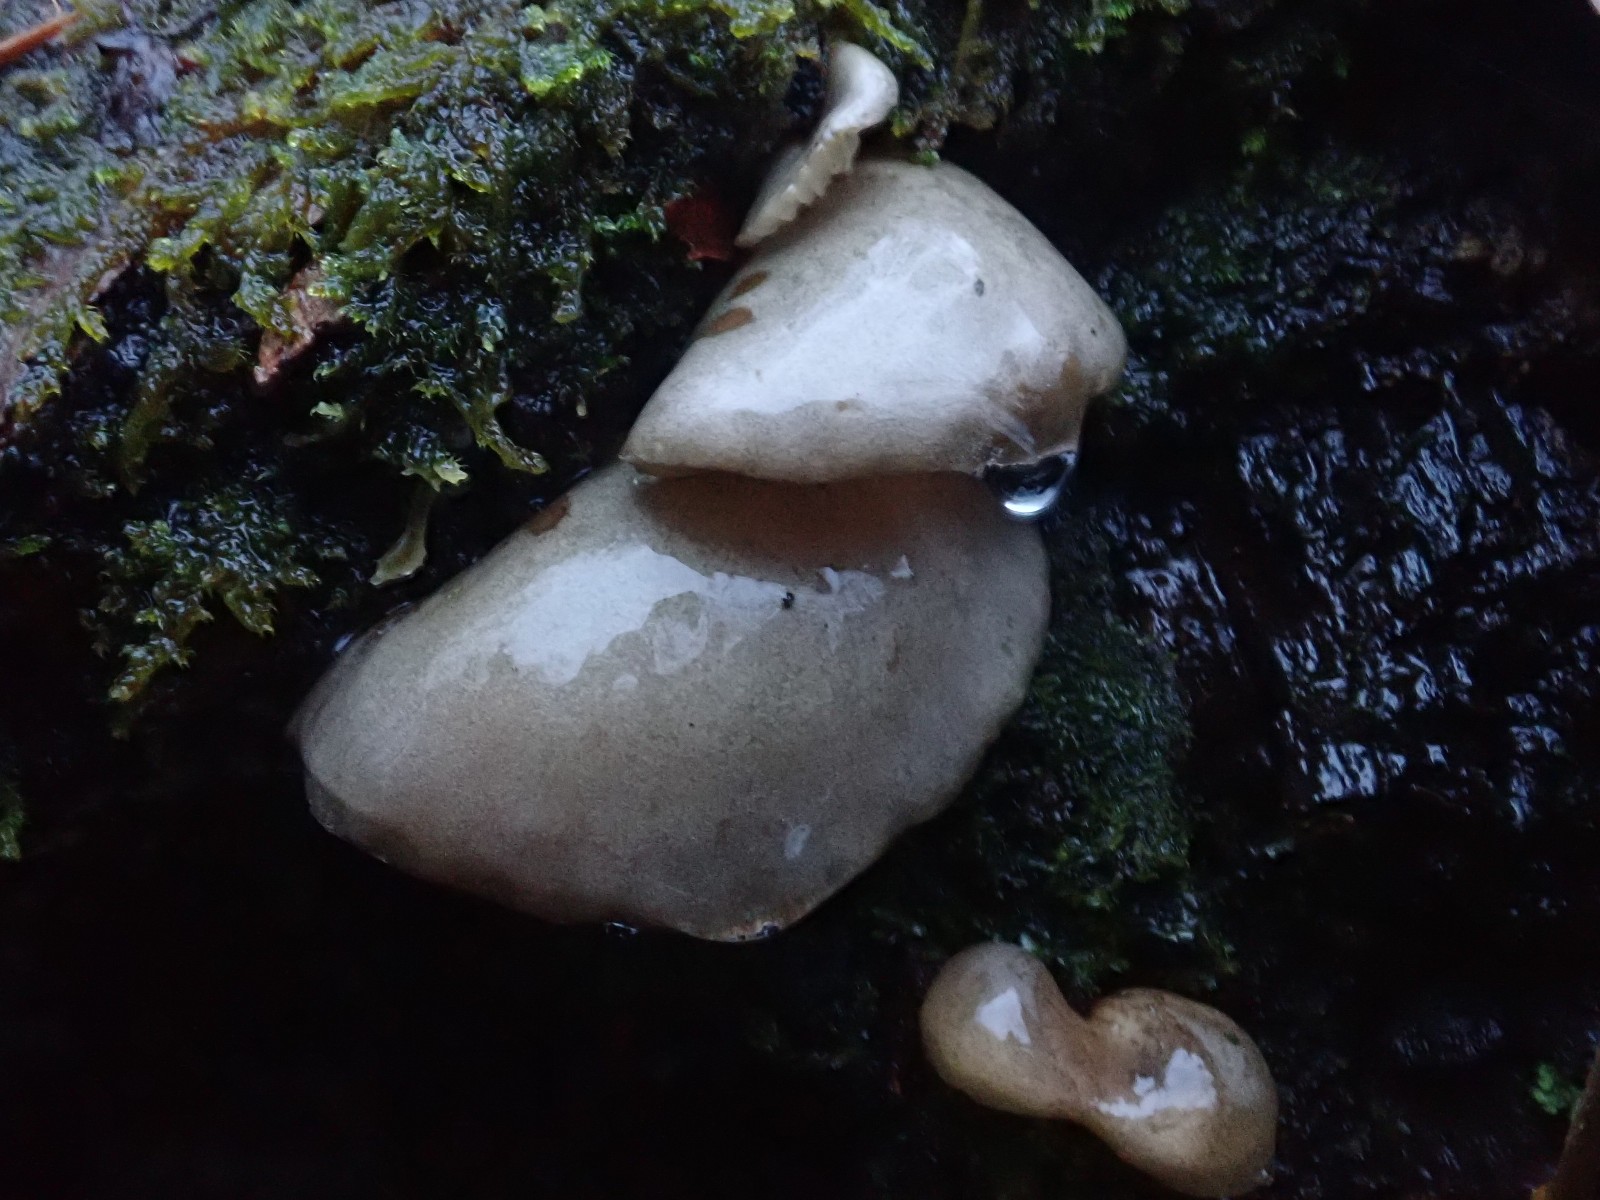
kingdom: Fungi
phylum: Basidiomycota
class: Agaricomycetes
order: Agaricales
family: Sarcomyxaceae
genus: Sarcomyxa
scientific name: Sarcomyxa serotina
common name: gummihat
